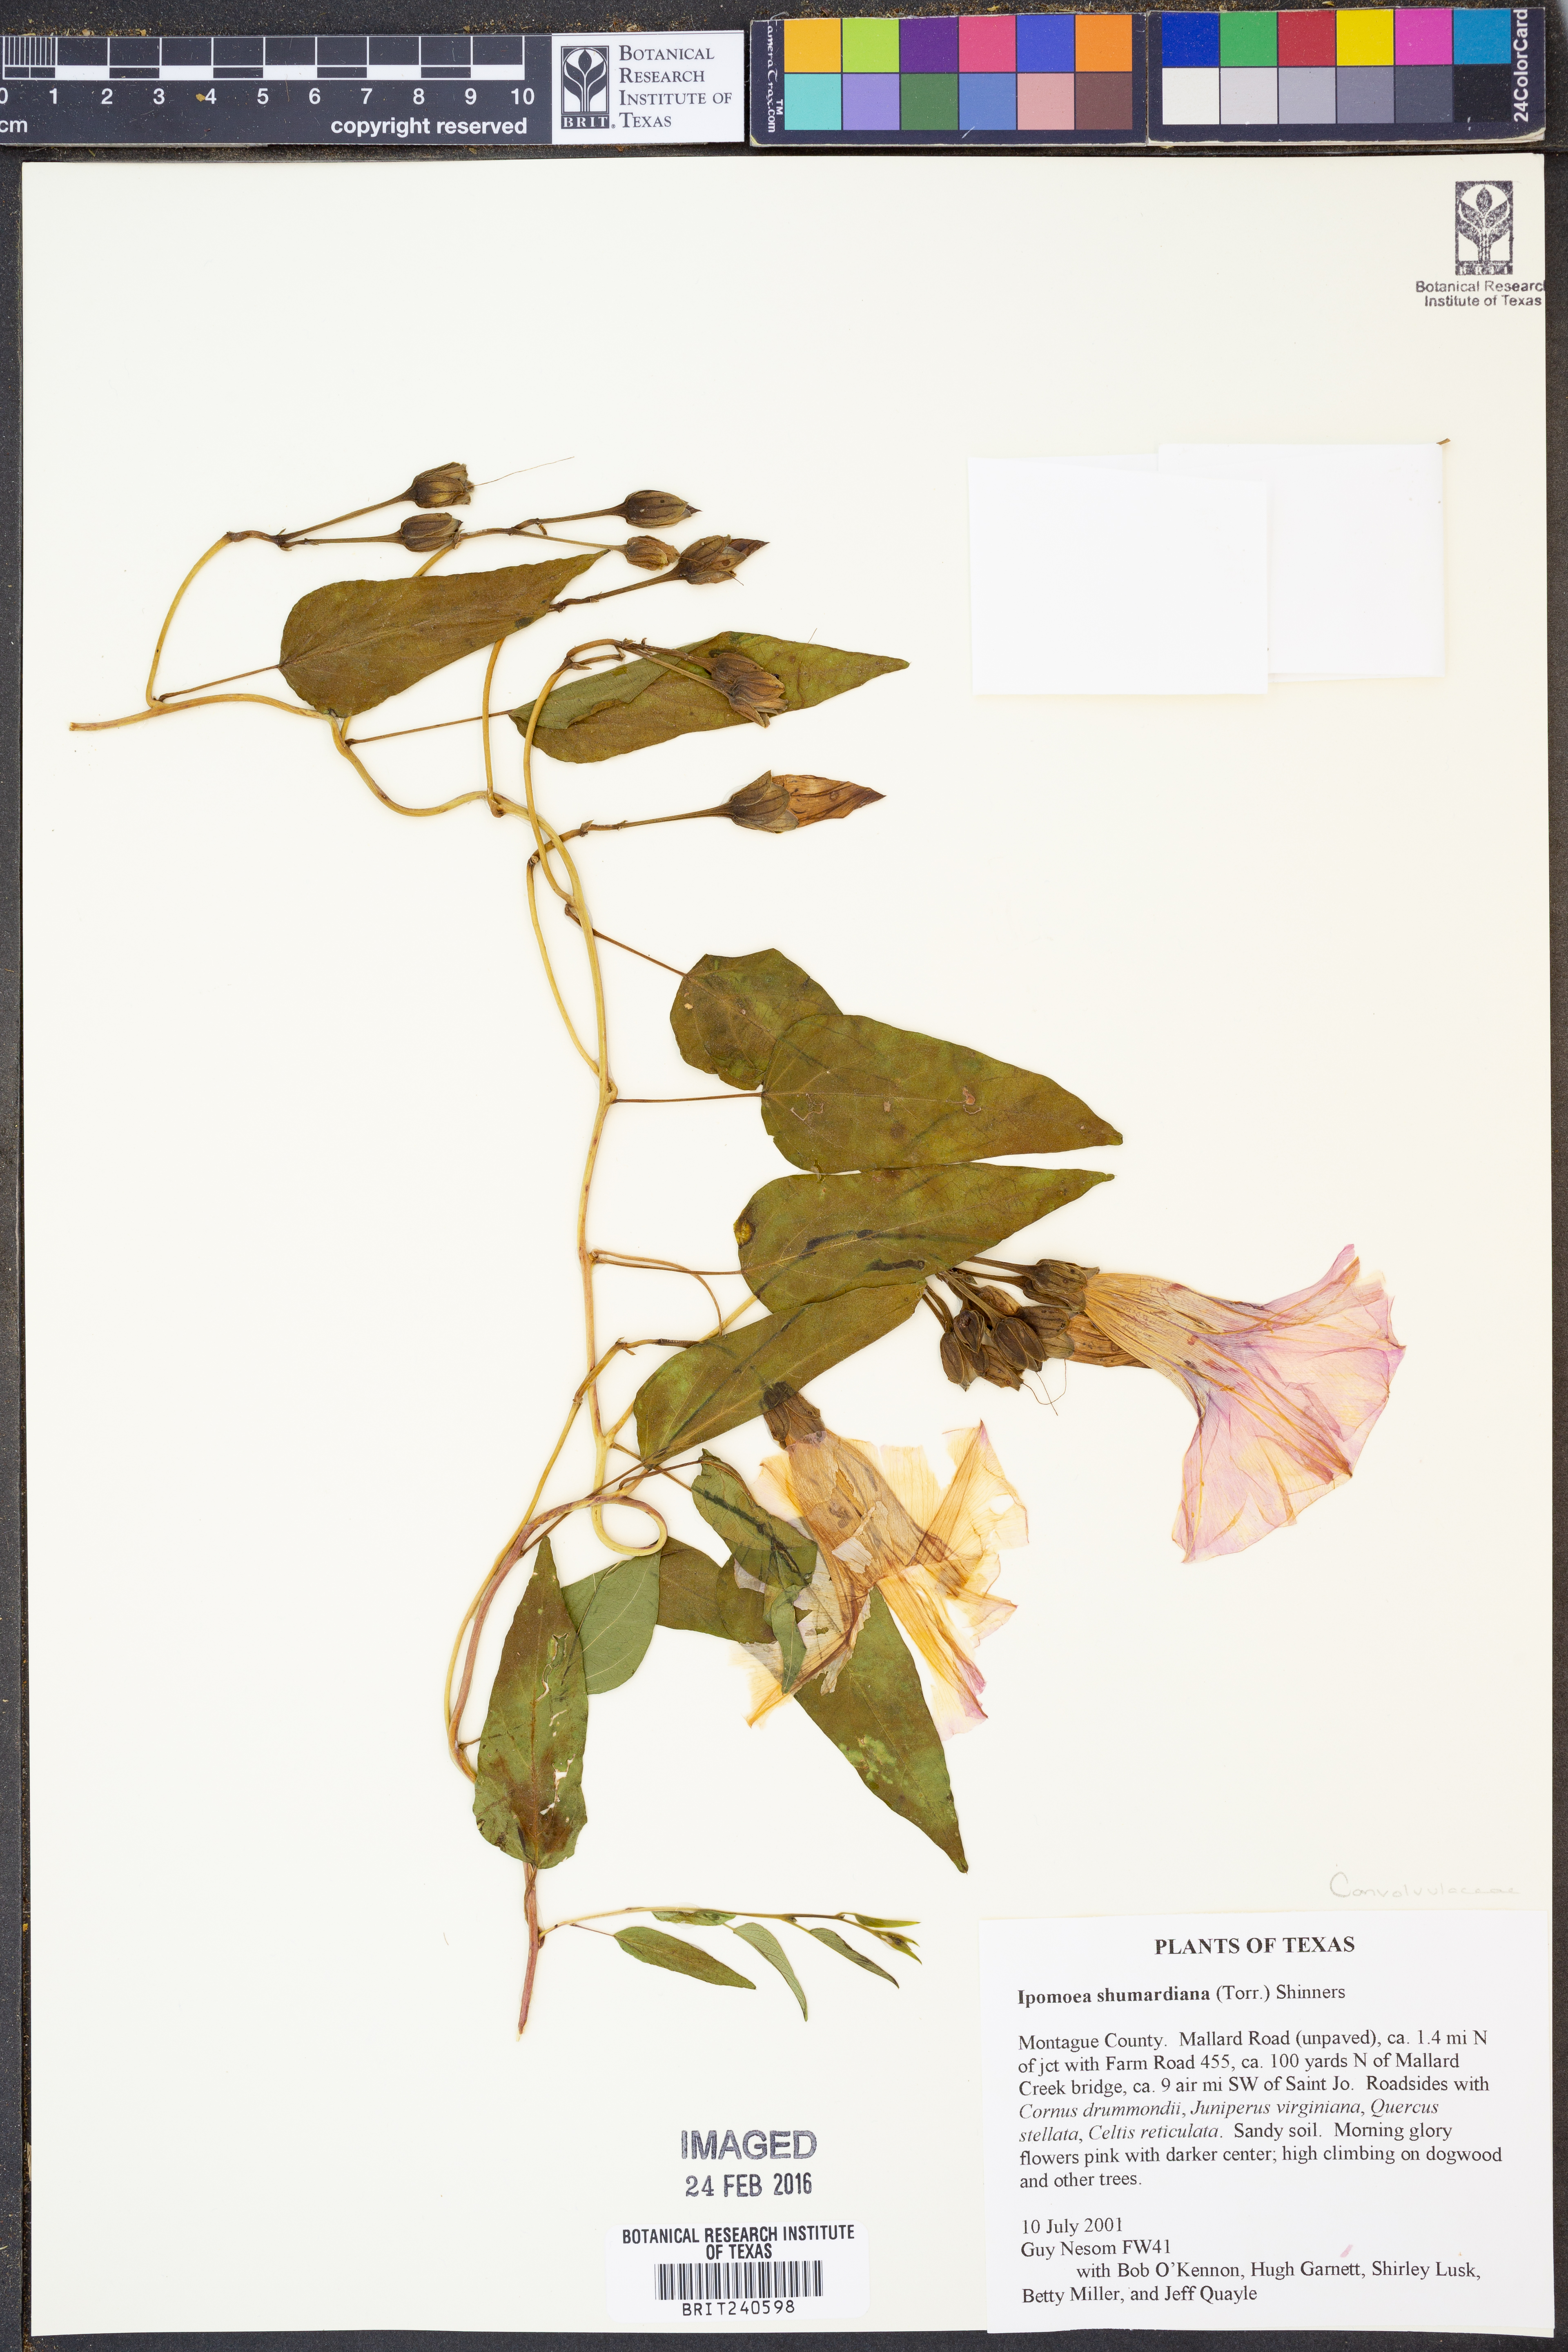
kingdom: Plantae
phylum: Tracheophyta
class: Magnoliopsida
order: Solanales
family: Convolvulaceae
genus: Ipomoea
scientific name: Ipomoea shumardiana
